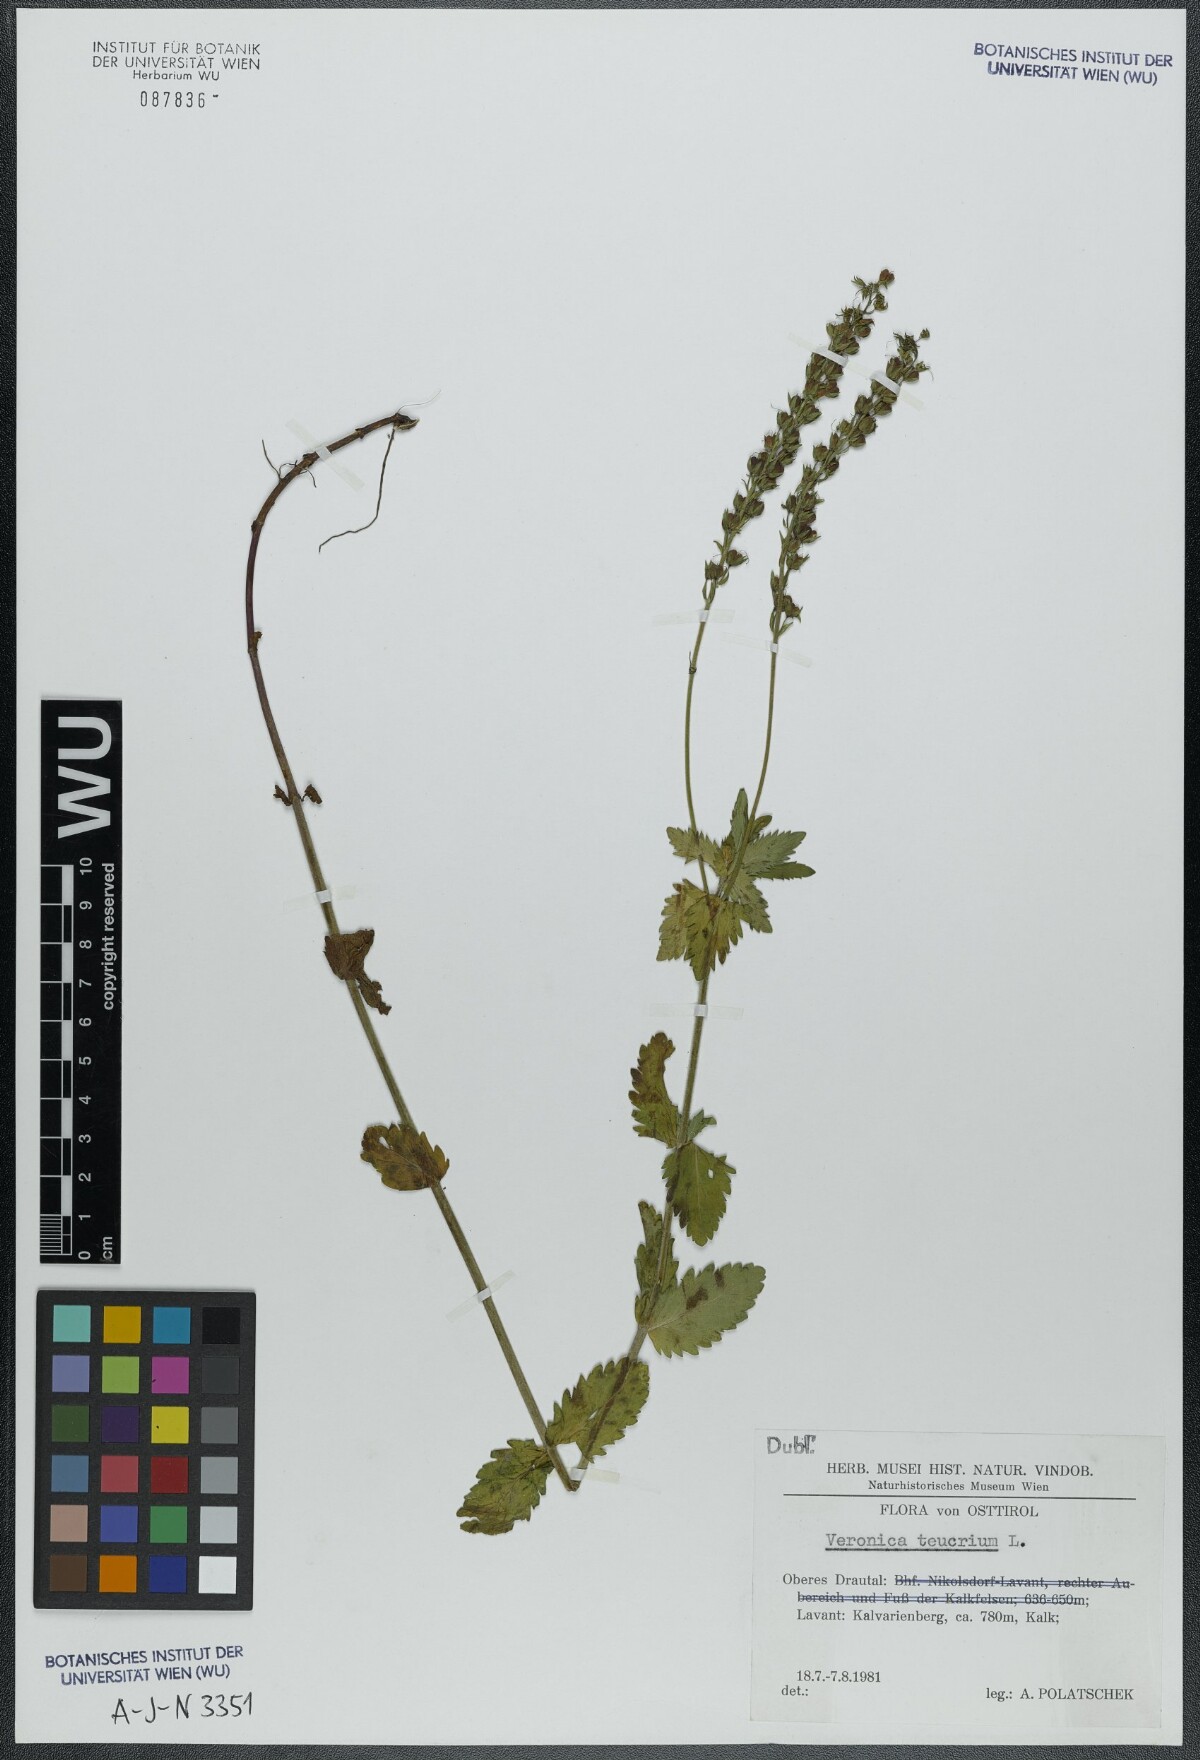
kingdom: Plantae
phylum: Tracheophyta
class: Magnoliopsida
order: Lamiales
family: Plantaginaceae
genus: Veronica
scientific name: Veronica teucrium
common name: Large speedwell
